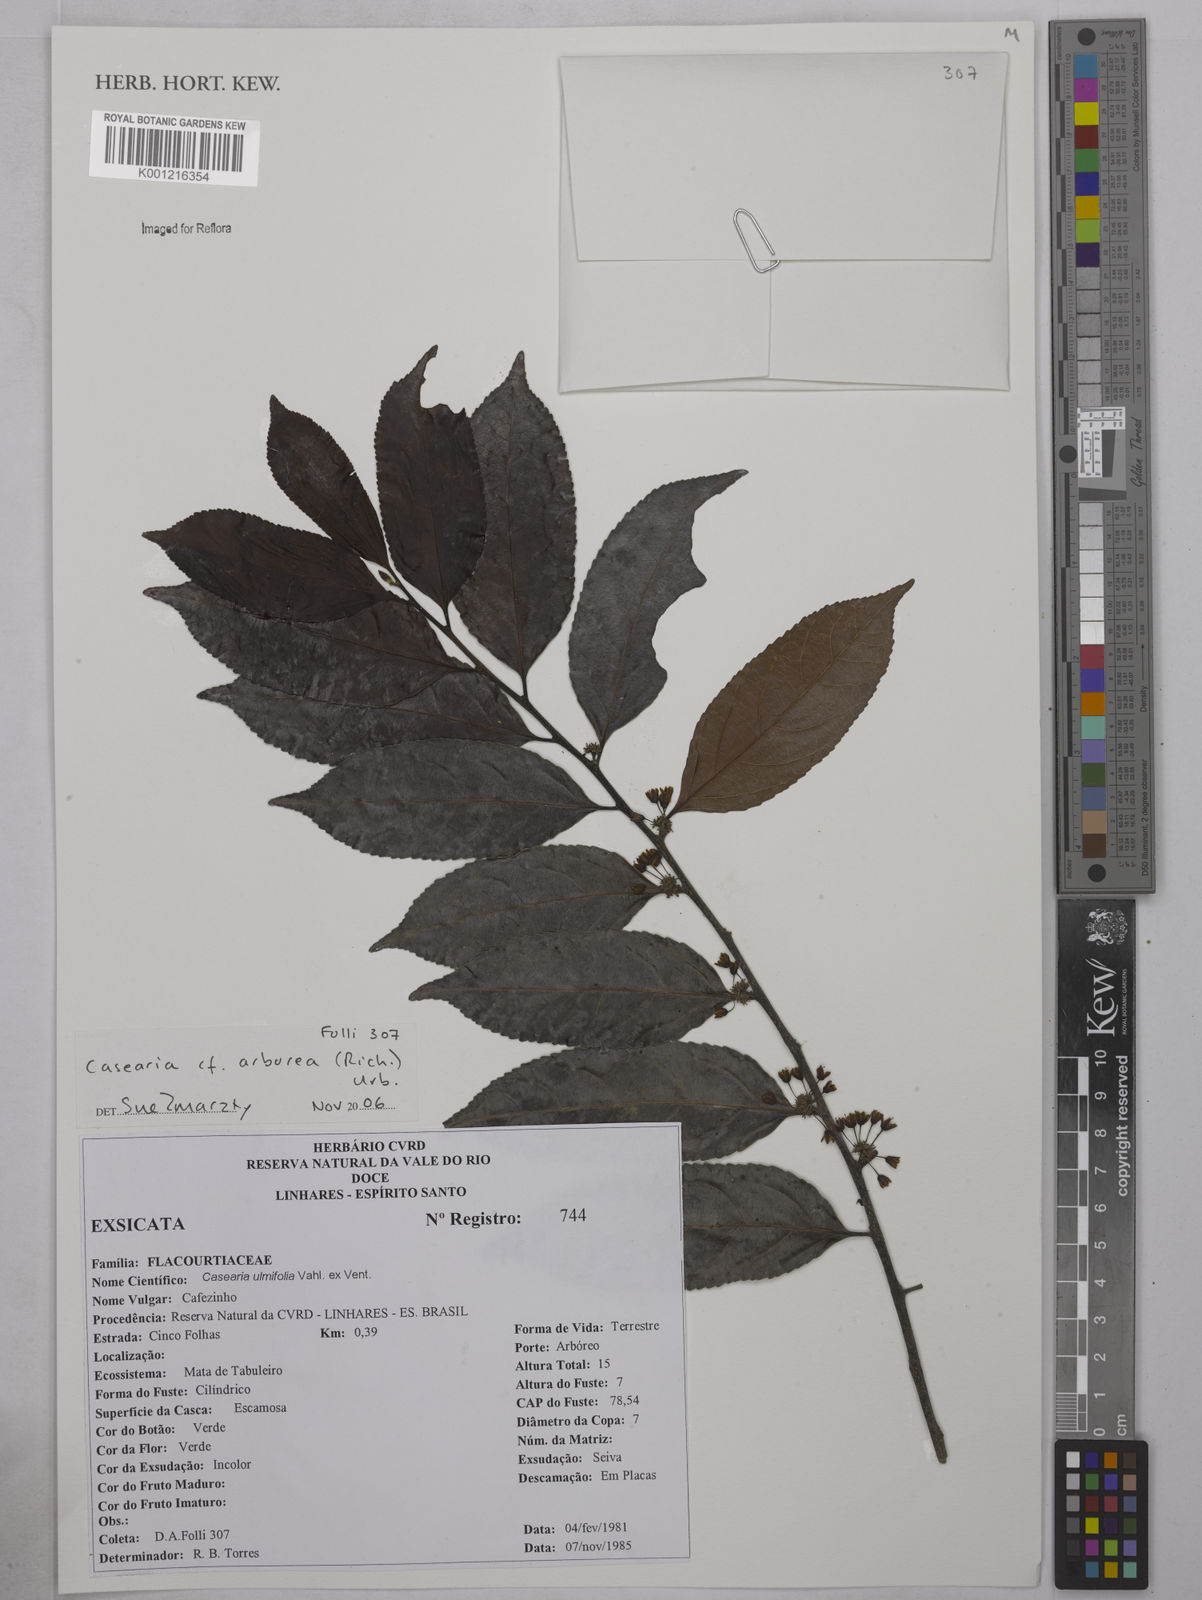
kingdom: Plantae
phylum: Tracheophyta
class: Magnoliopsida
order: Malpighiales
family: Salicaceae
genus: Casearia
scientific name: Casearia arborea
